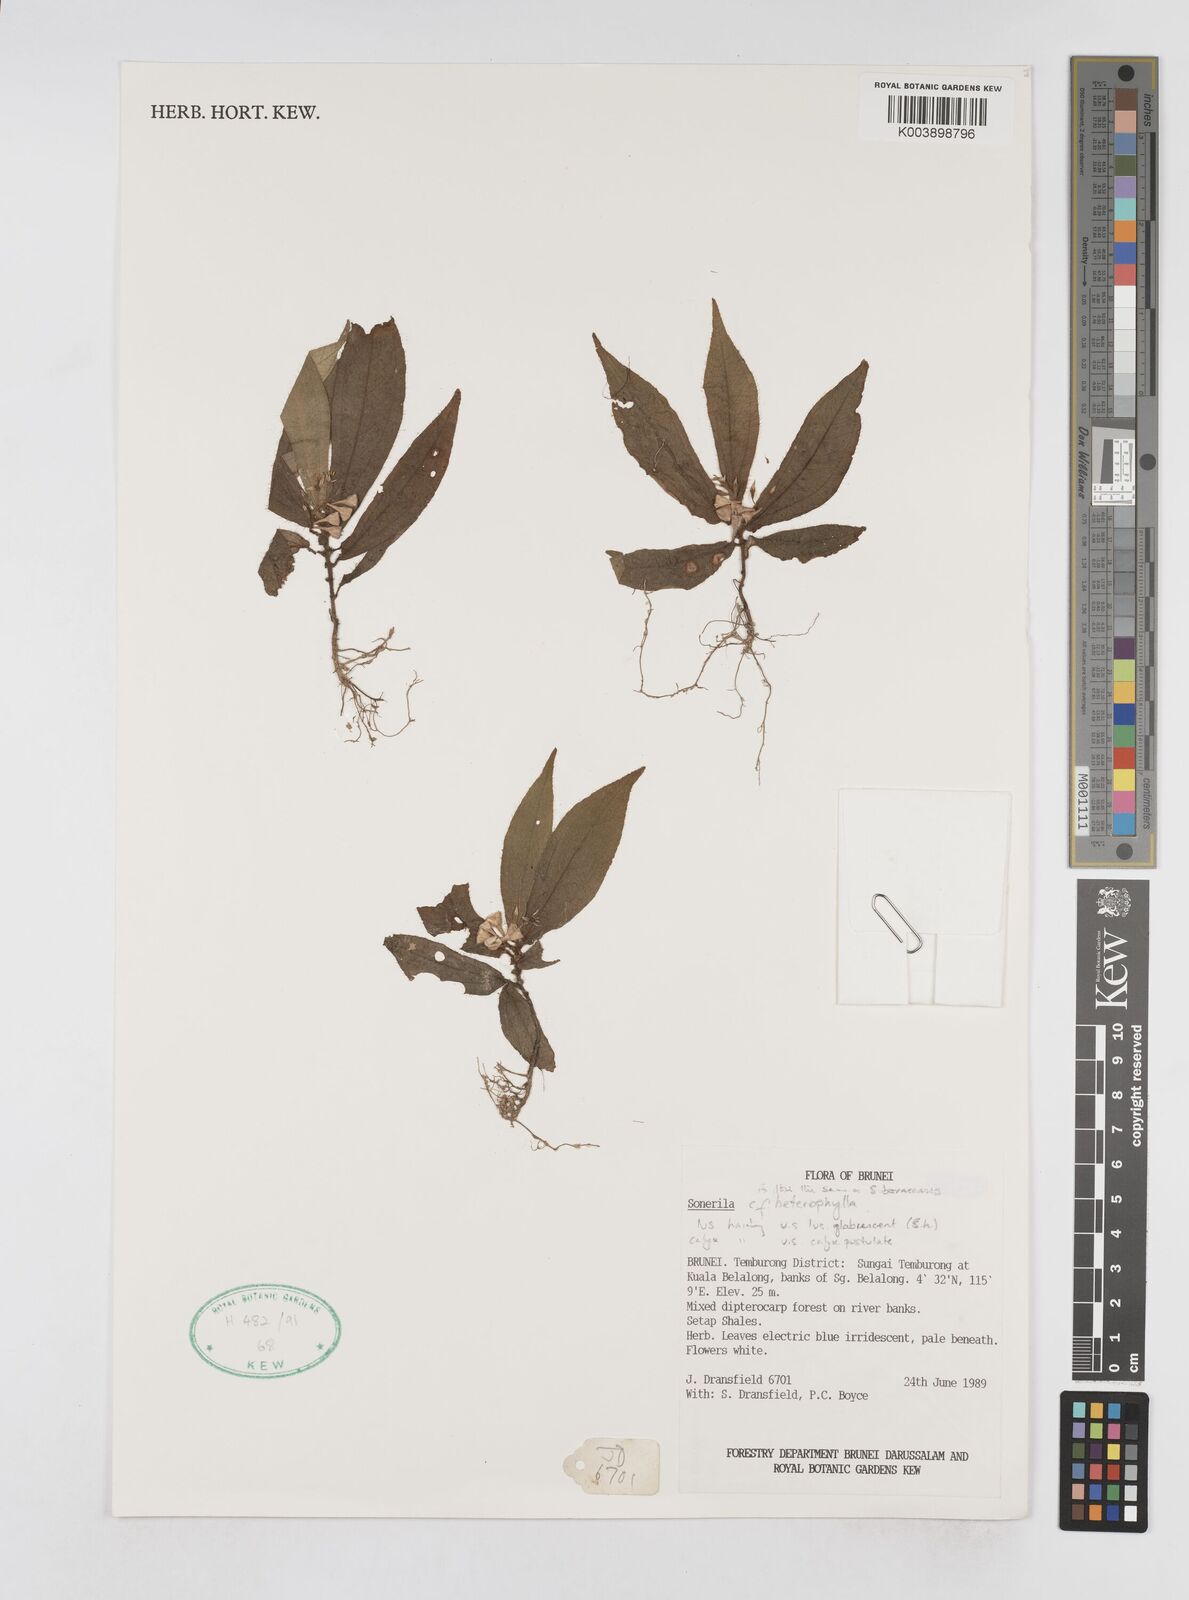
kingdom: Plantae
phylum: Tracheophyta
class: Magnoliopsida
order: Myrtales
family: Melastomataceae
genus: Sonerila
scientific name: Sonerila
